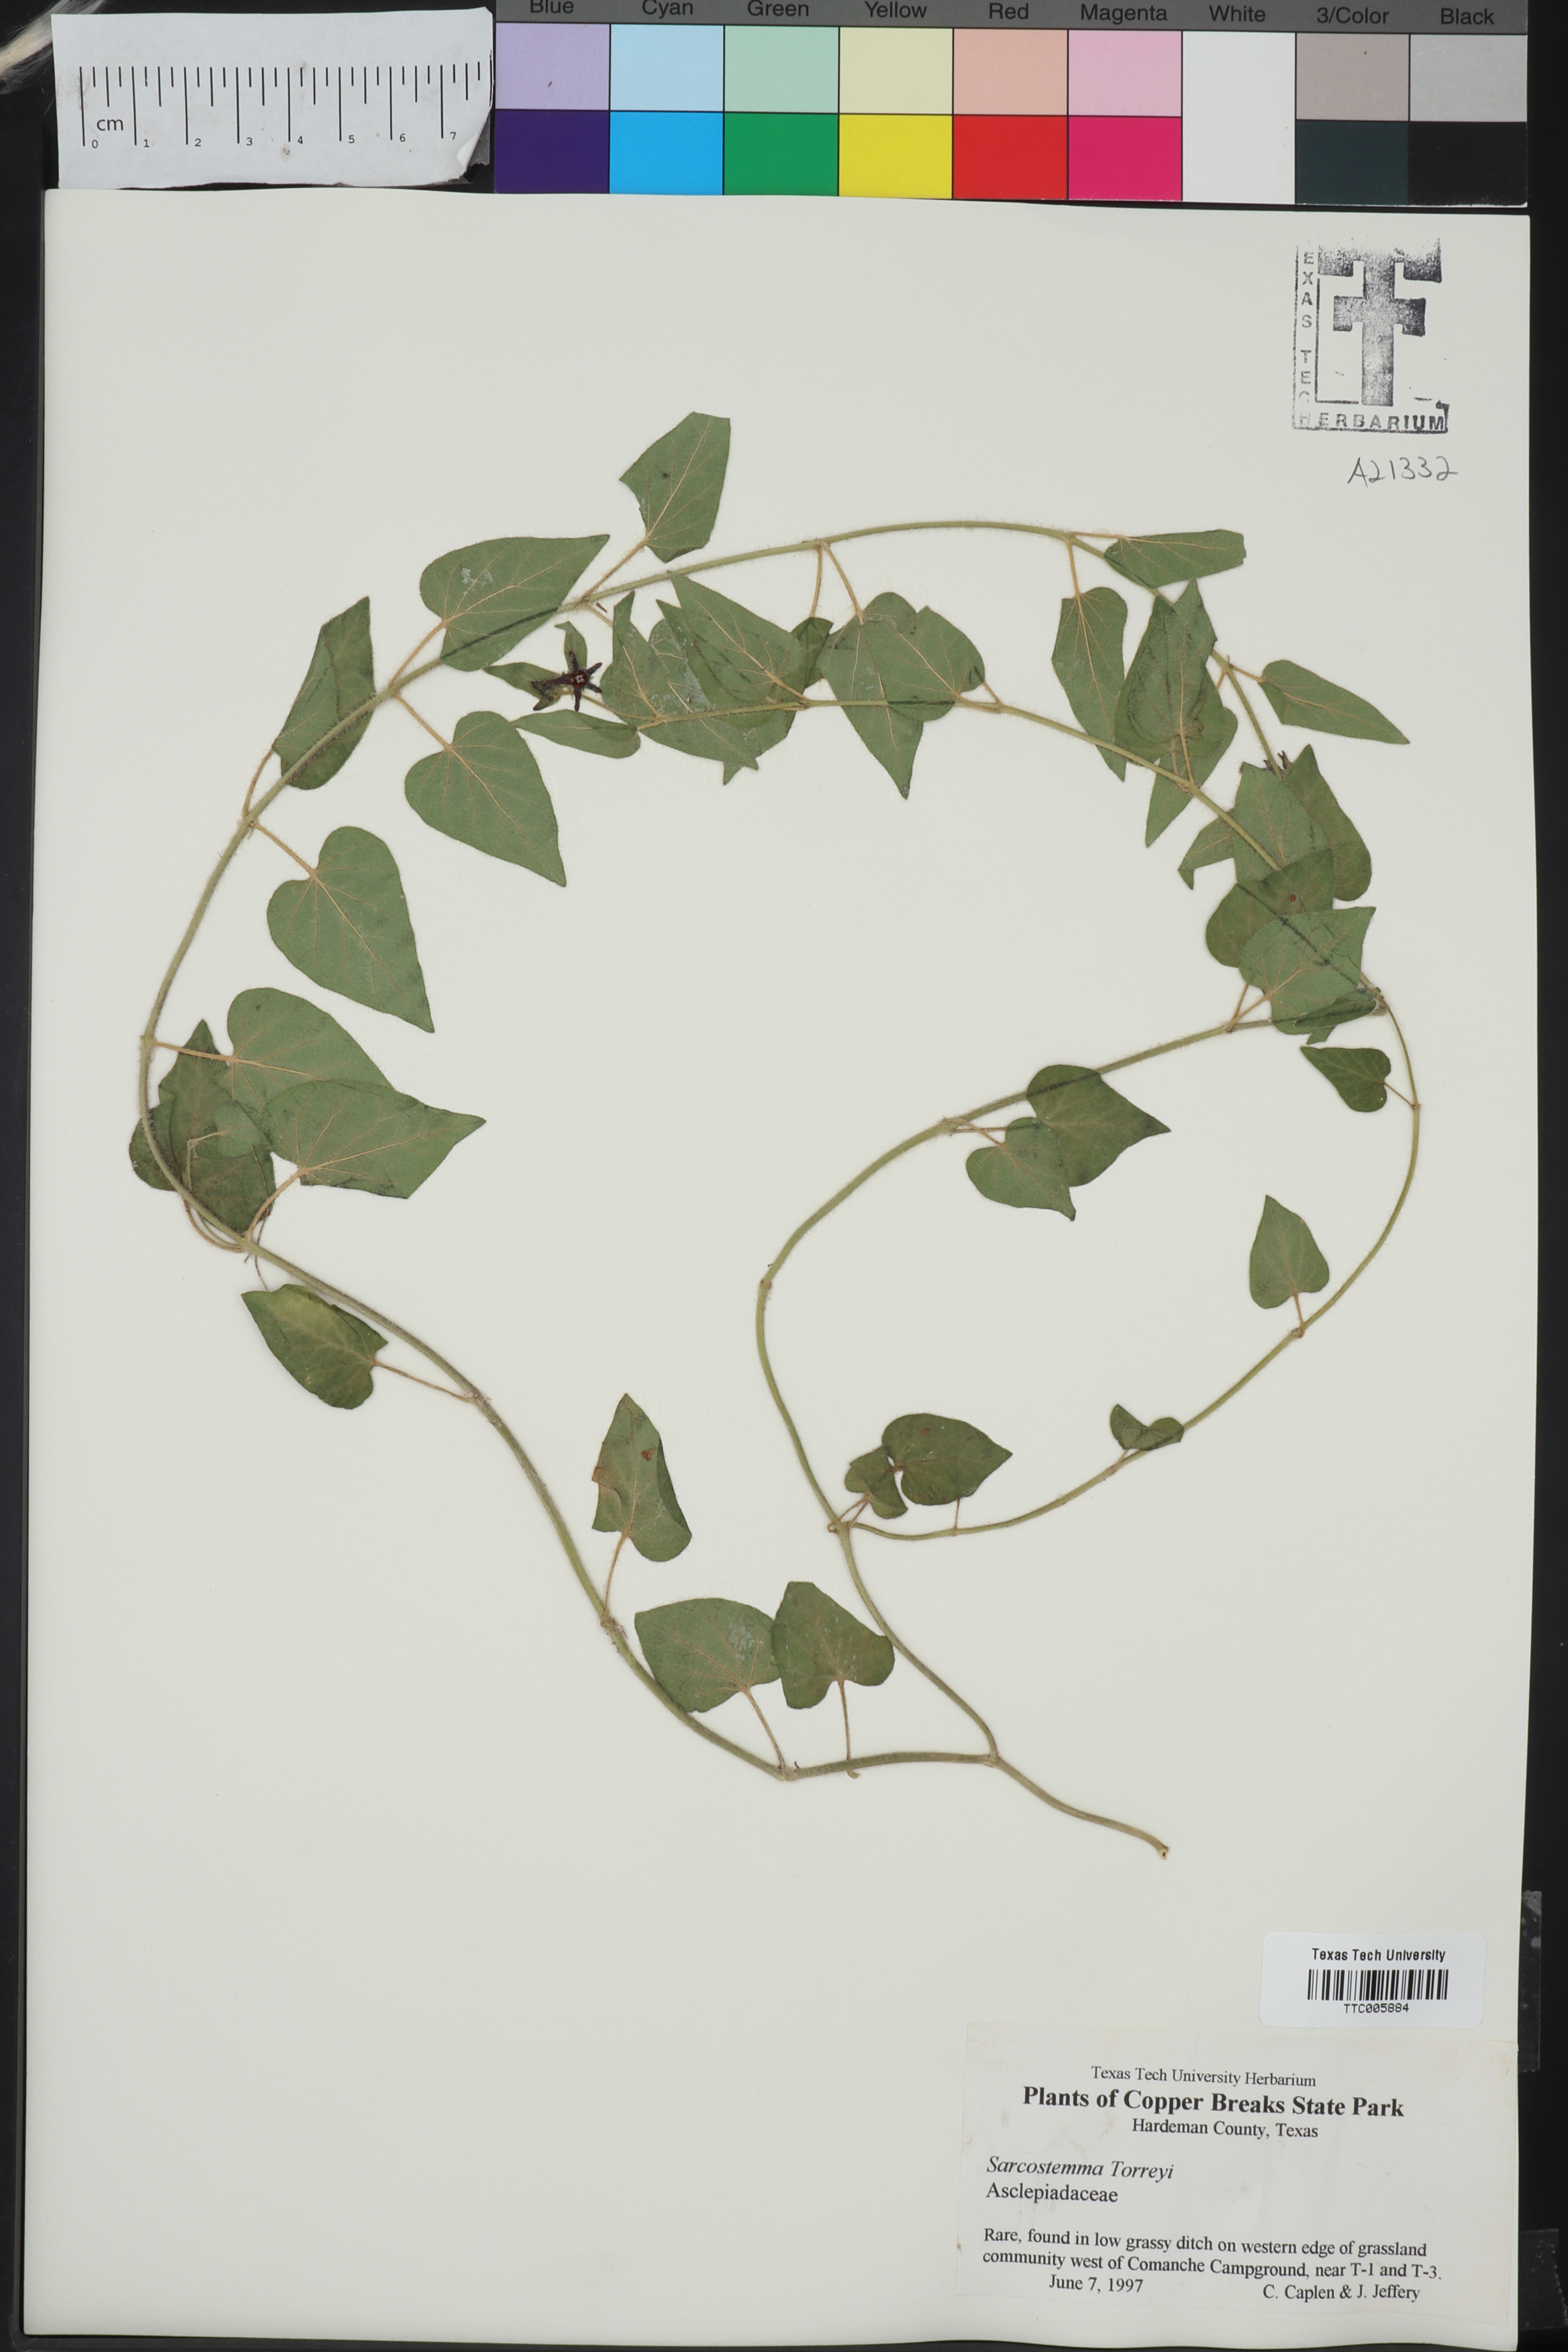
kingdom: Plantae
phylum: Tracheophyta
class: Magnoliopsida
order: Gentianales
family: Apocynaceae
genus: Chthamalia
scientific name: Chthamalia biflora
